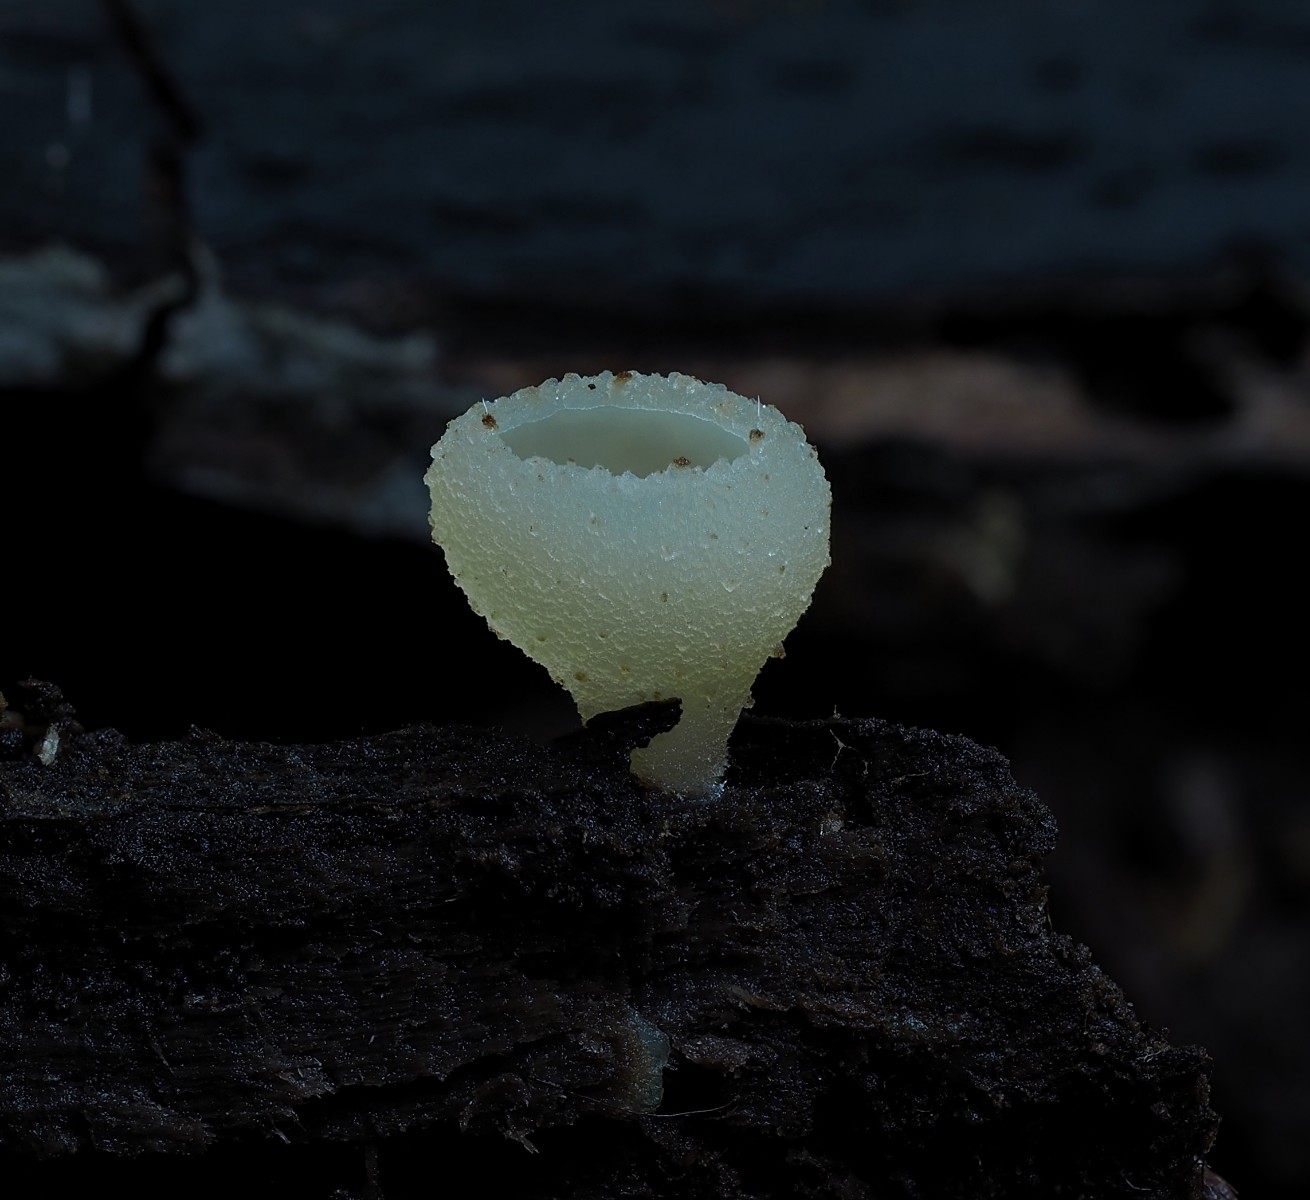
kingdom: Fungi
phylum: Ascomycota
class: Pezizomycetes
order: Pezizales
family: Pezizaceae
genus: Peziza
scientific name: Peziza varia
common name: Ved-bægersvamp
